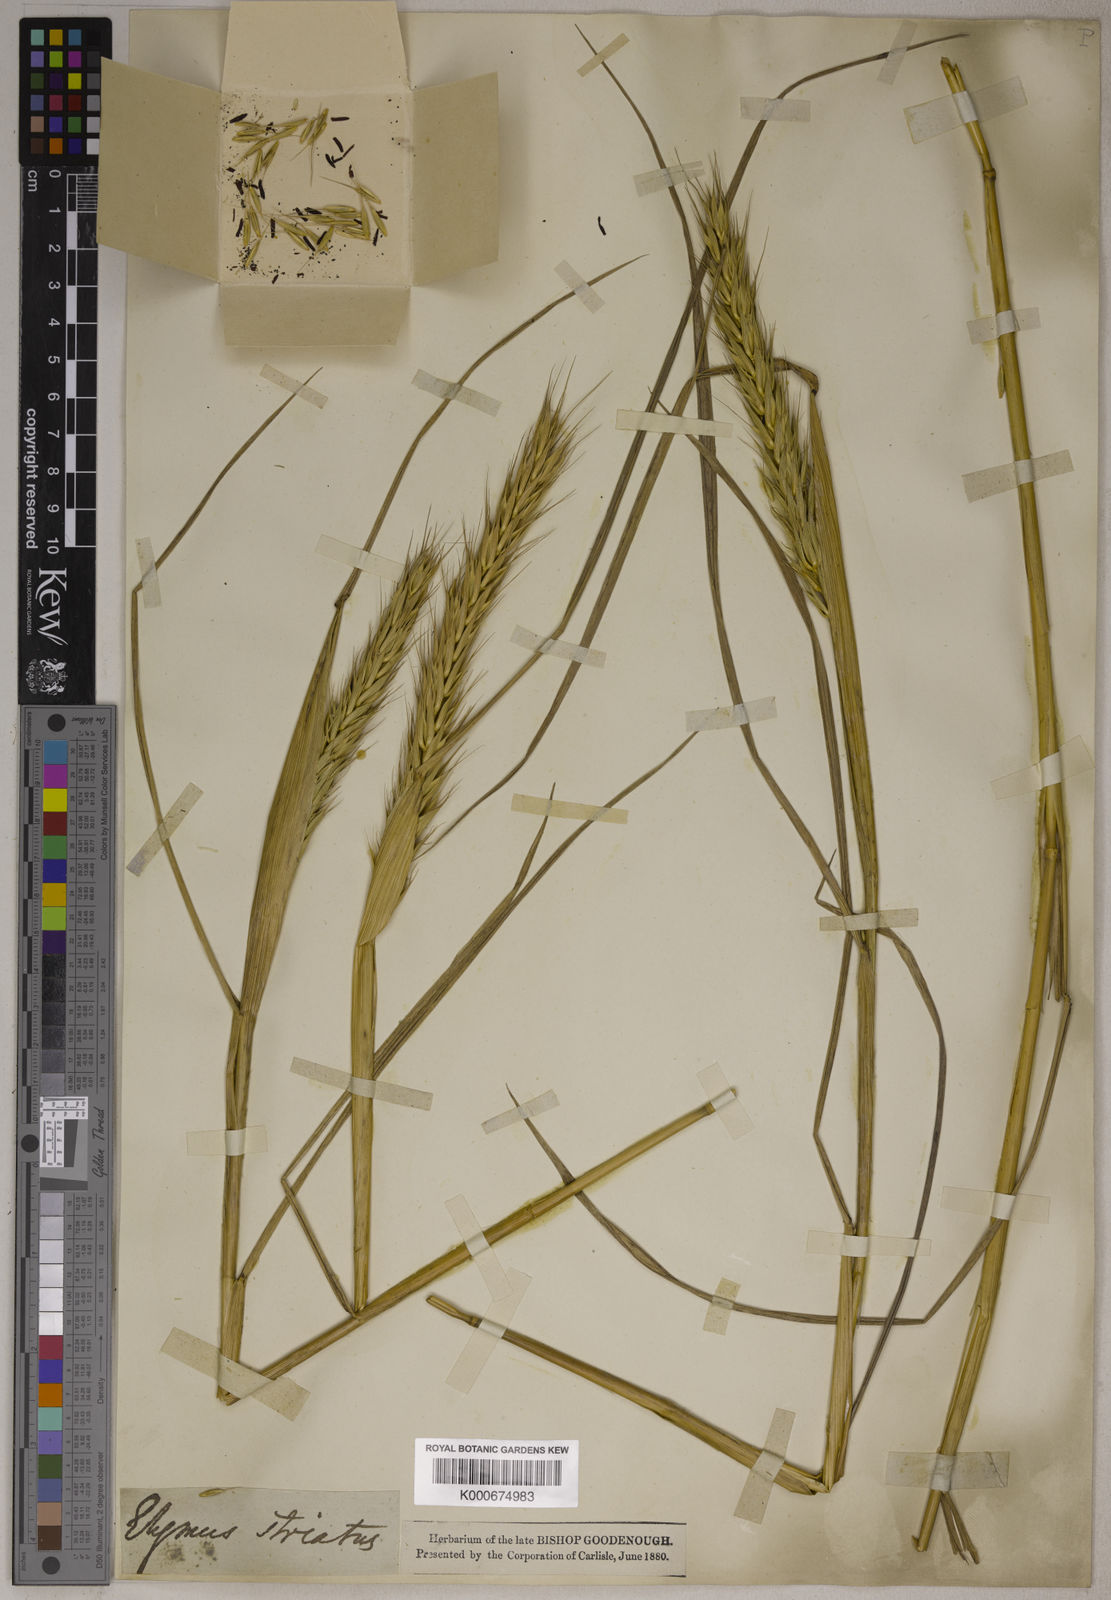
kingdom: Plantae
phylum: Tracheophyta
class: Liliopsida
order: Poales
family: Poaceae
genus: Elymus
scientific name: Elymus virginicus
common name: Common eastern wildrye
